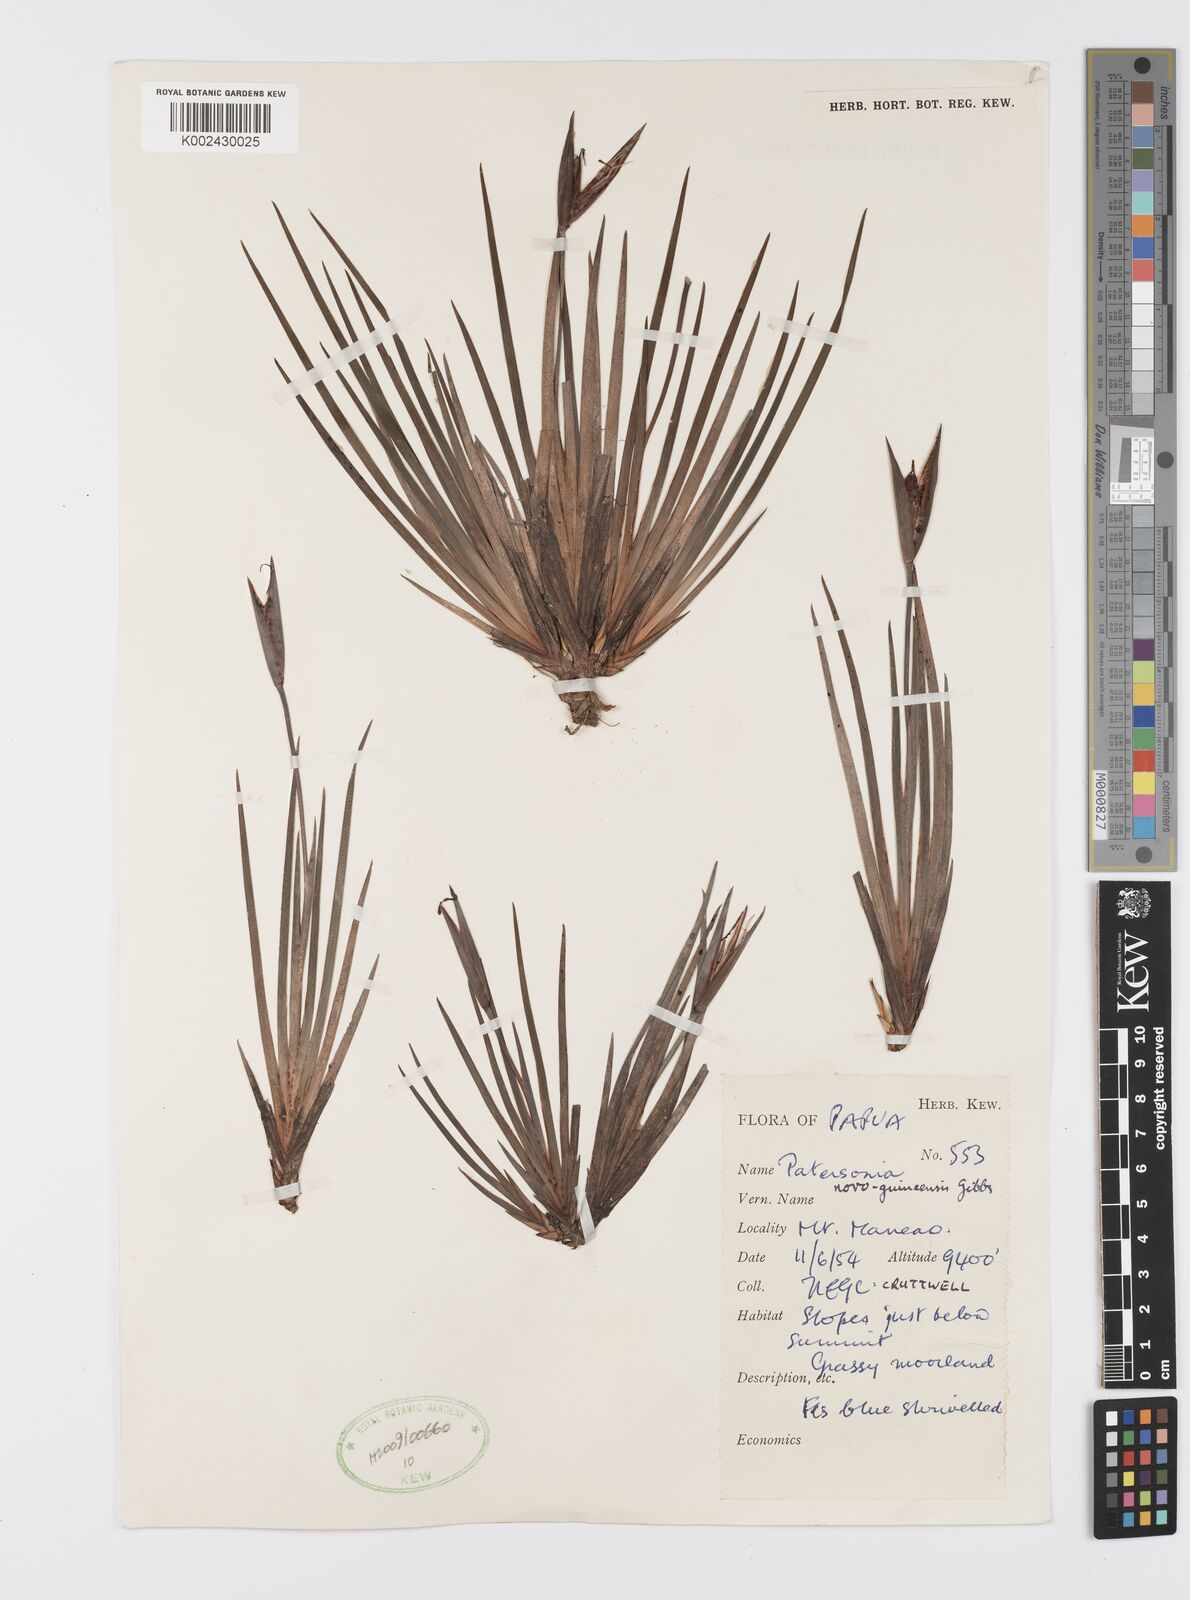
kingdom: Plantae
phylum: Tracheophyta
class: Liliopsida
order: Asparagales
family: Iridaceae
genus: Patersonia
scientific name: Patersonia novoguineensis
